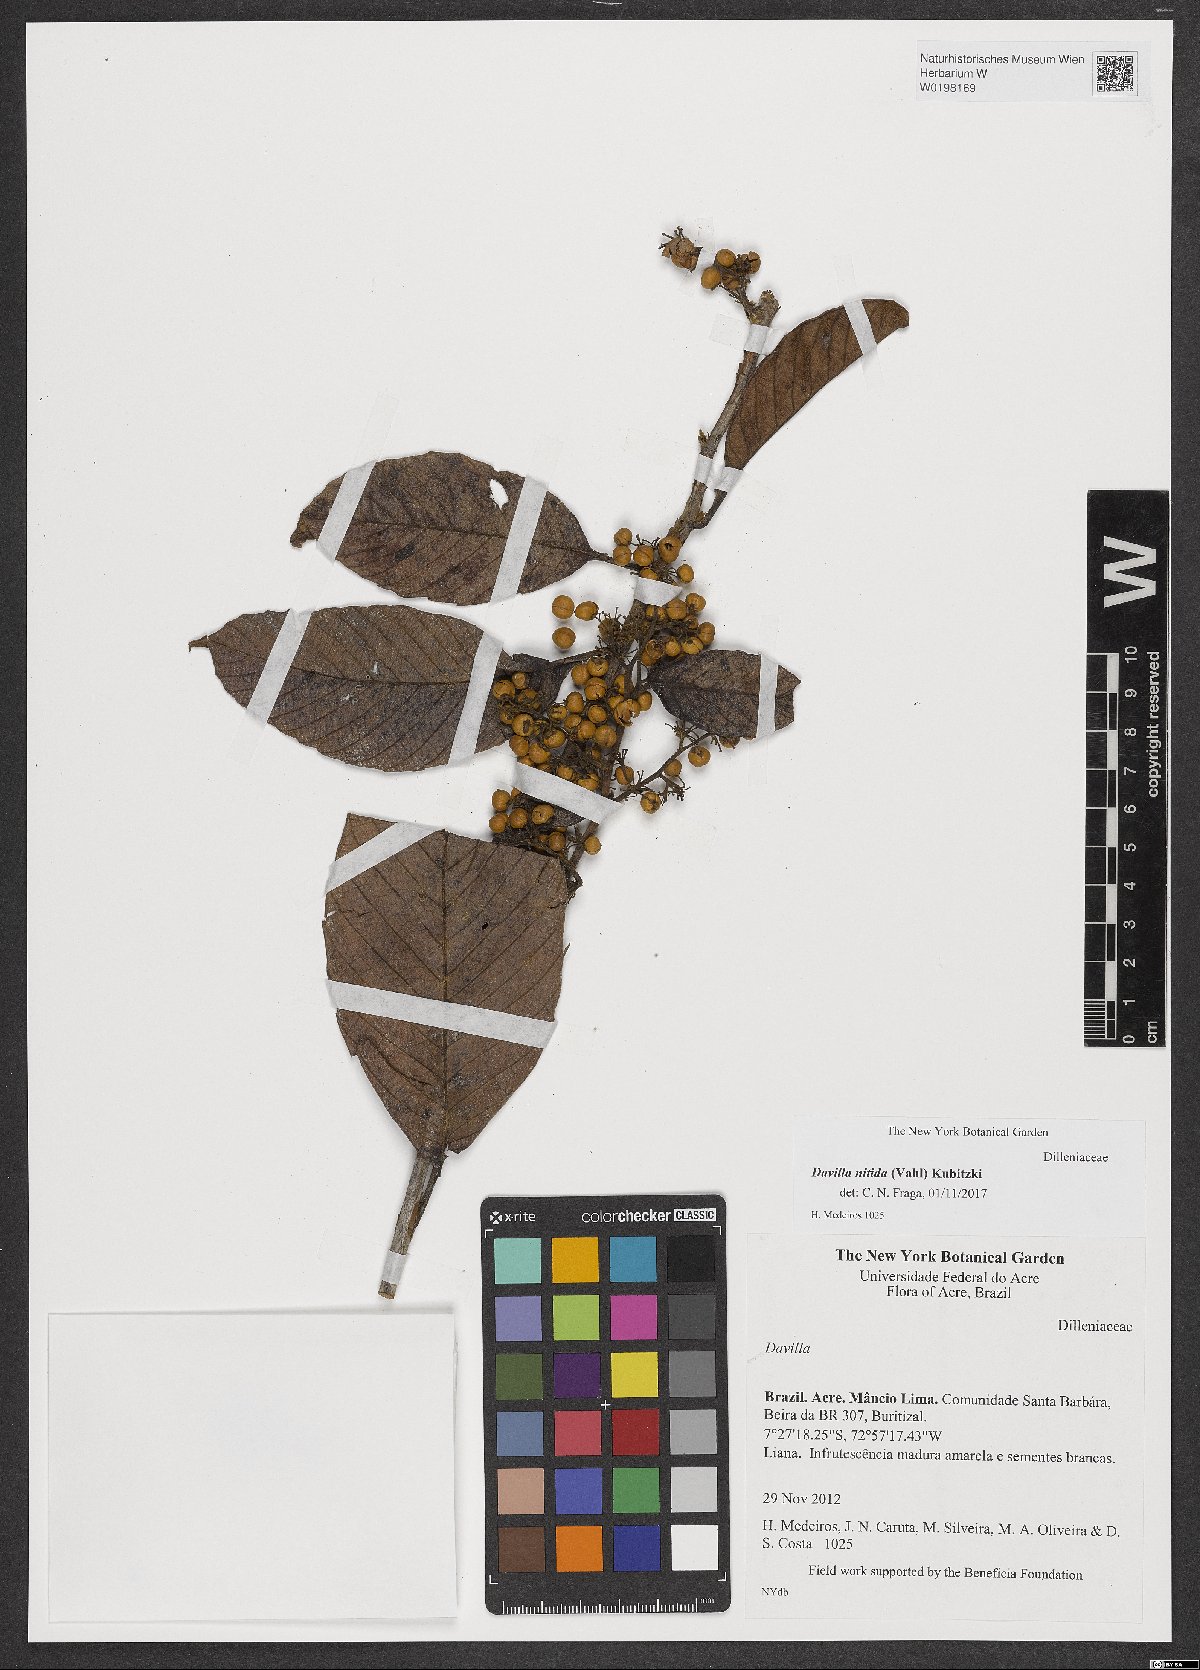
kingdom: Plantae
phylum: Tracheophyta
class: Magnoliopsida
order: Dilleniales
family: Dilleniaceae
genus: Davilla
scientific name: Davilla nitida
